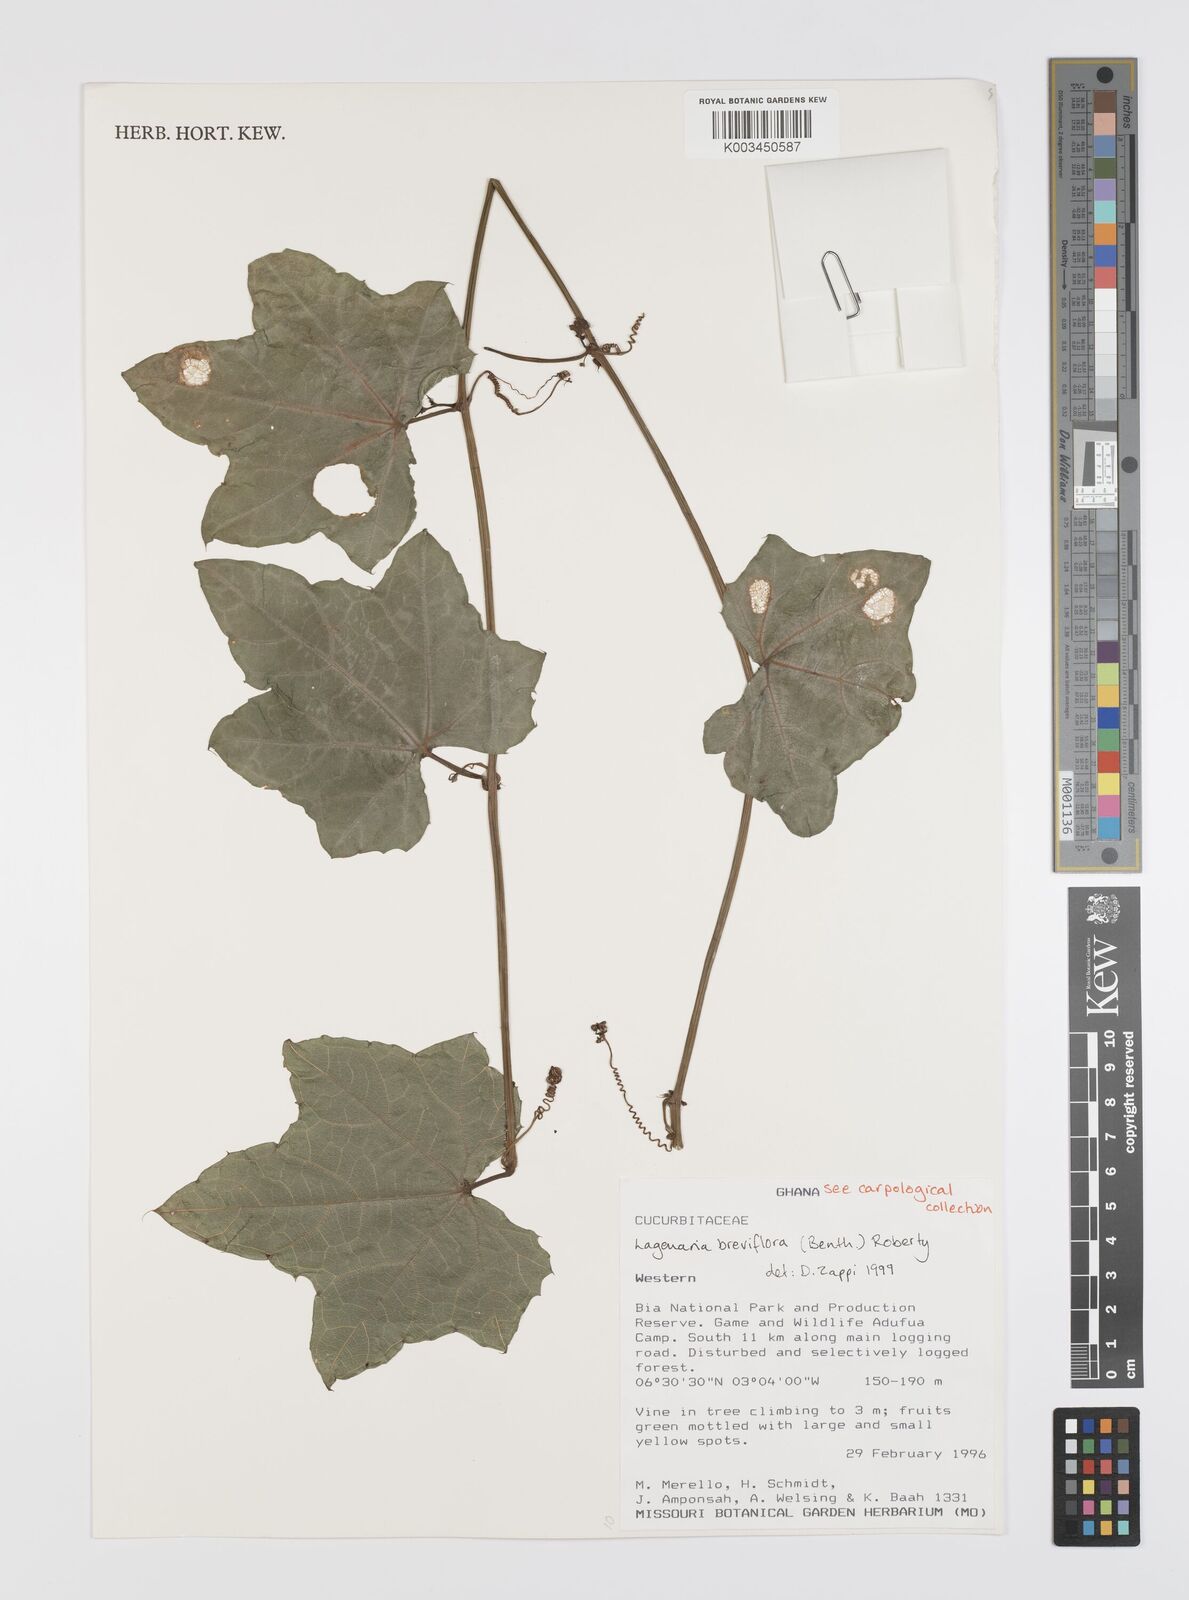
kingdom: Plantae
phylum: Tracheophyta
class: Magnoliopsida
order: Cucurbitales
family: Cucurbitaceae
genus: Lagenaria
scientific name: Lagenaria breviflora
